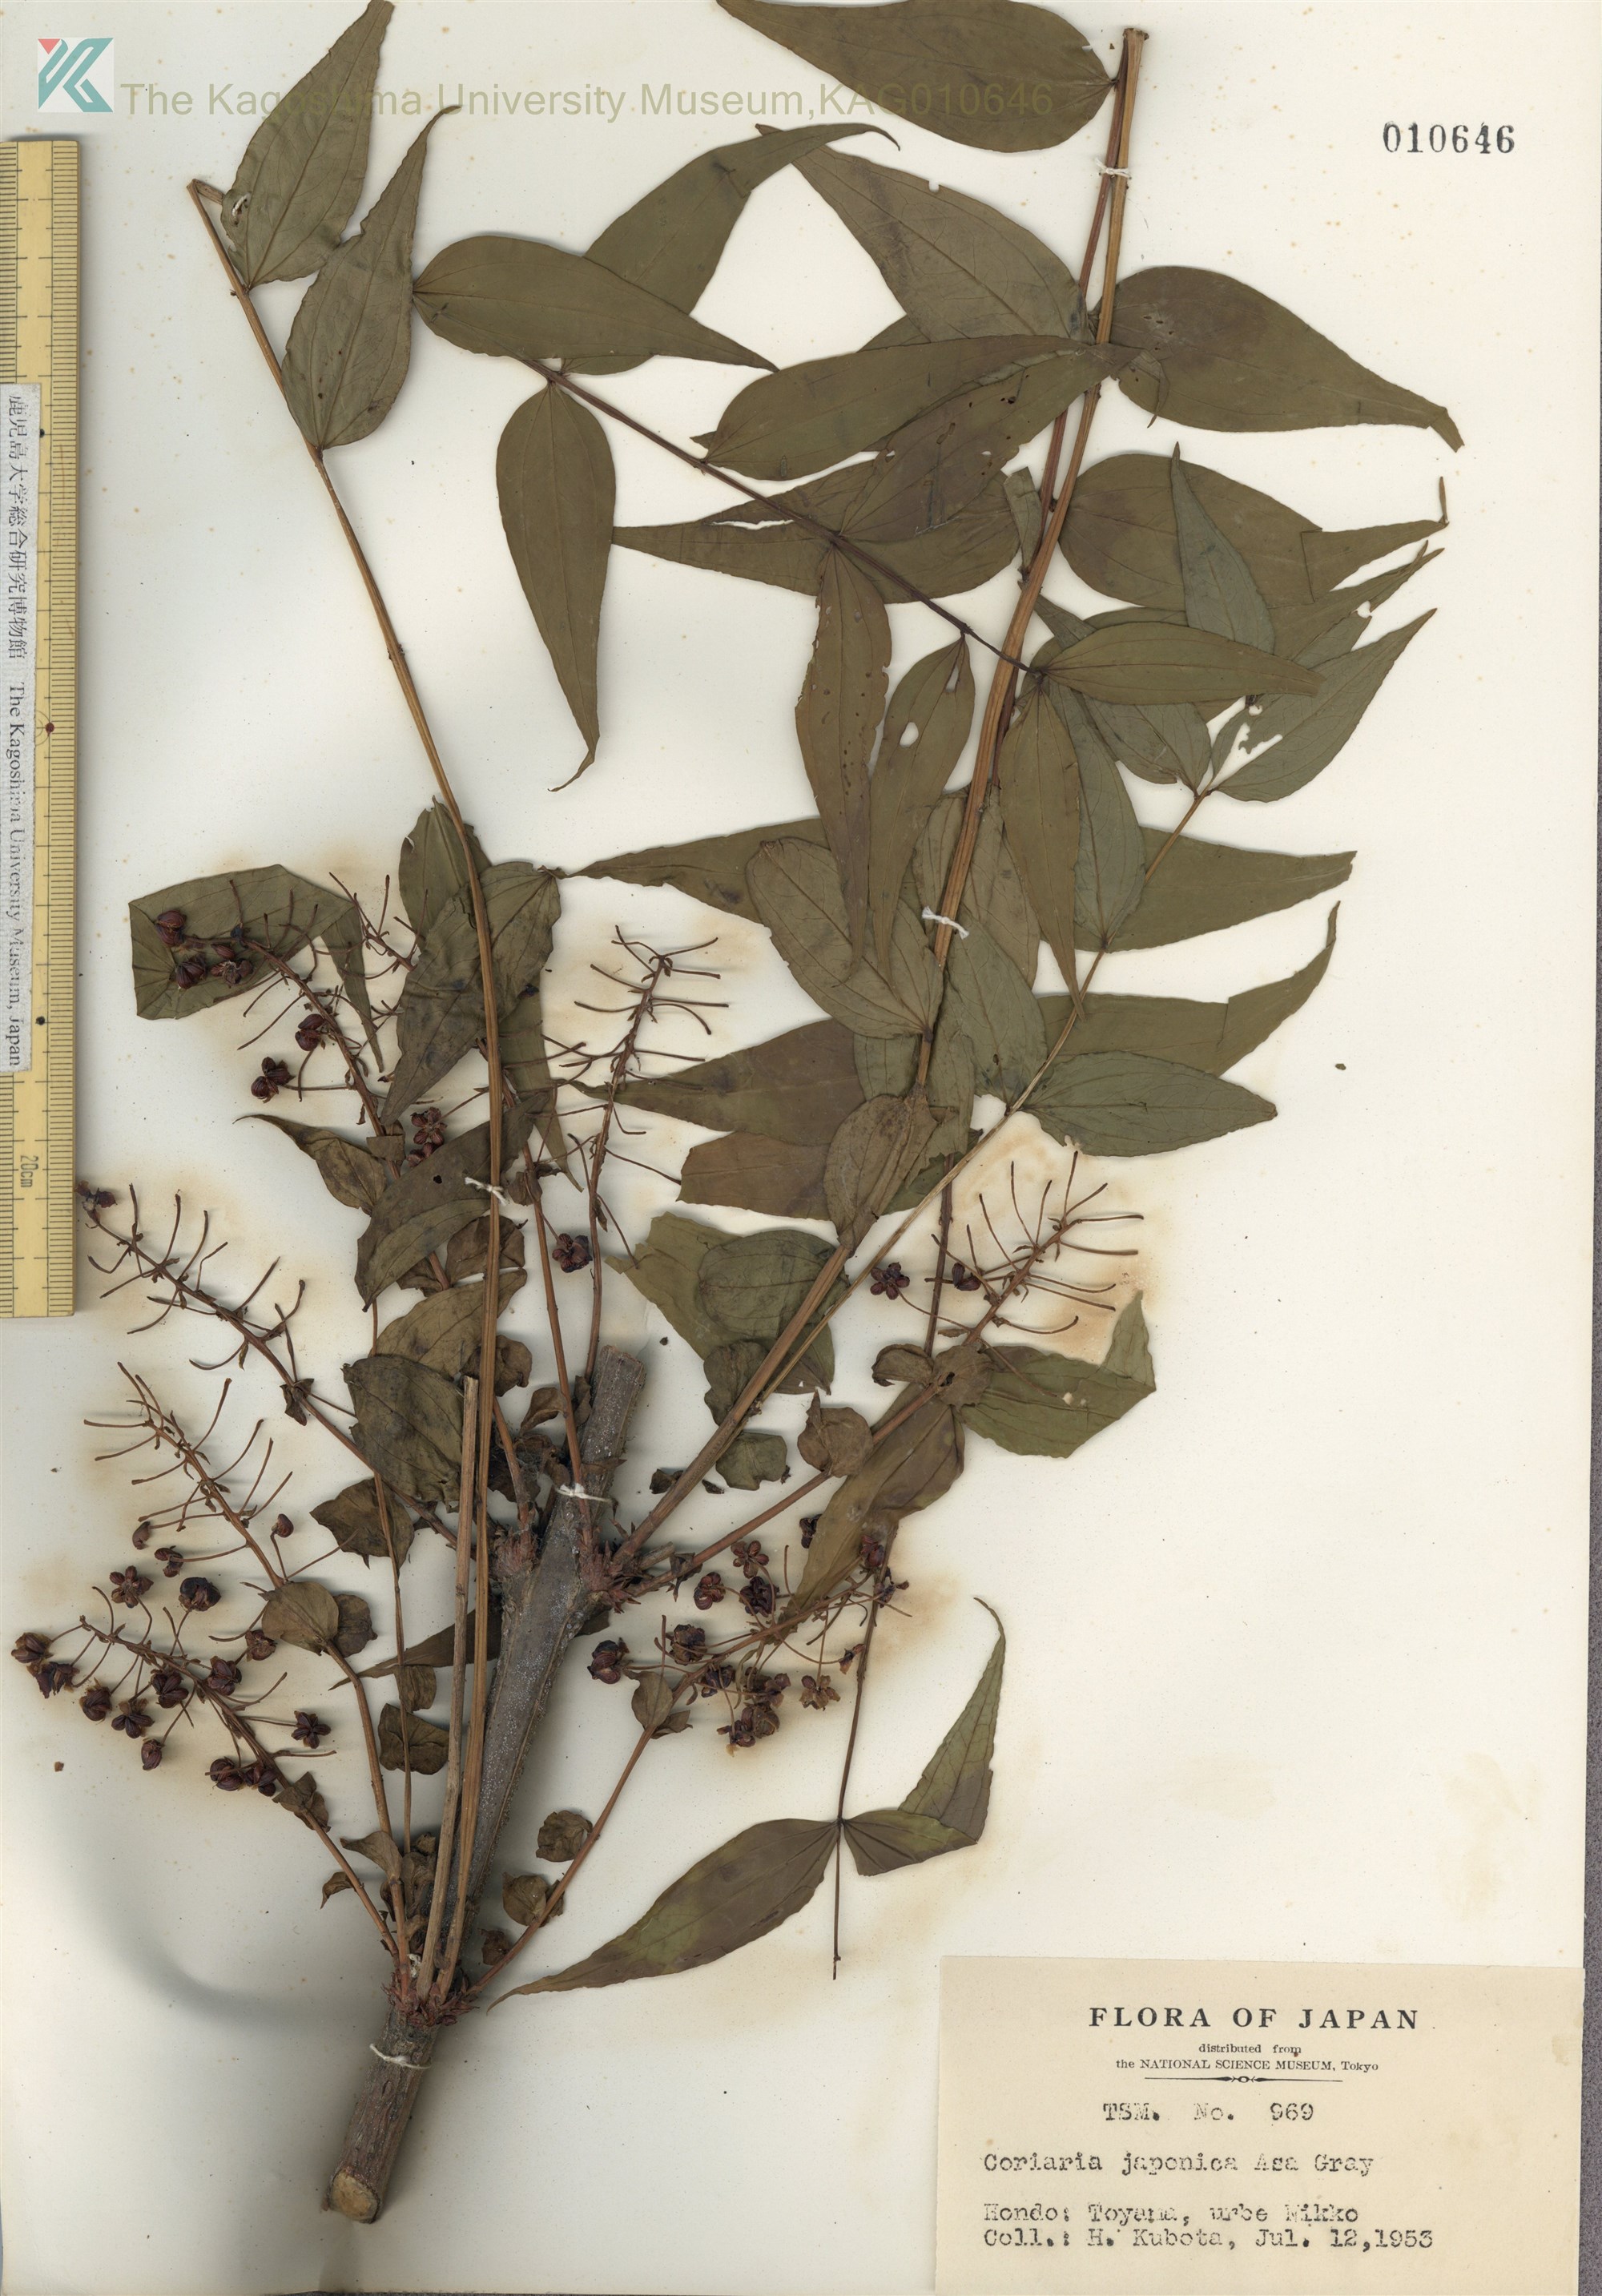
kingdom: Plantae
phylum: Tracheophyta
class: Magnoliopsida
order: Cucurbitales
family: Coriariaceae
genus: Coriaria
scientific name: Coriaria japonica
